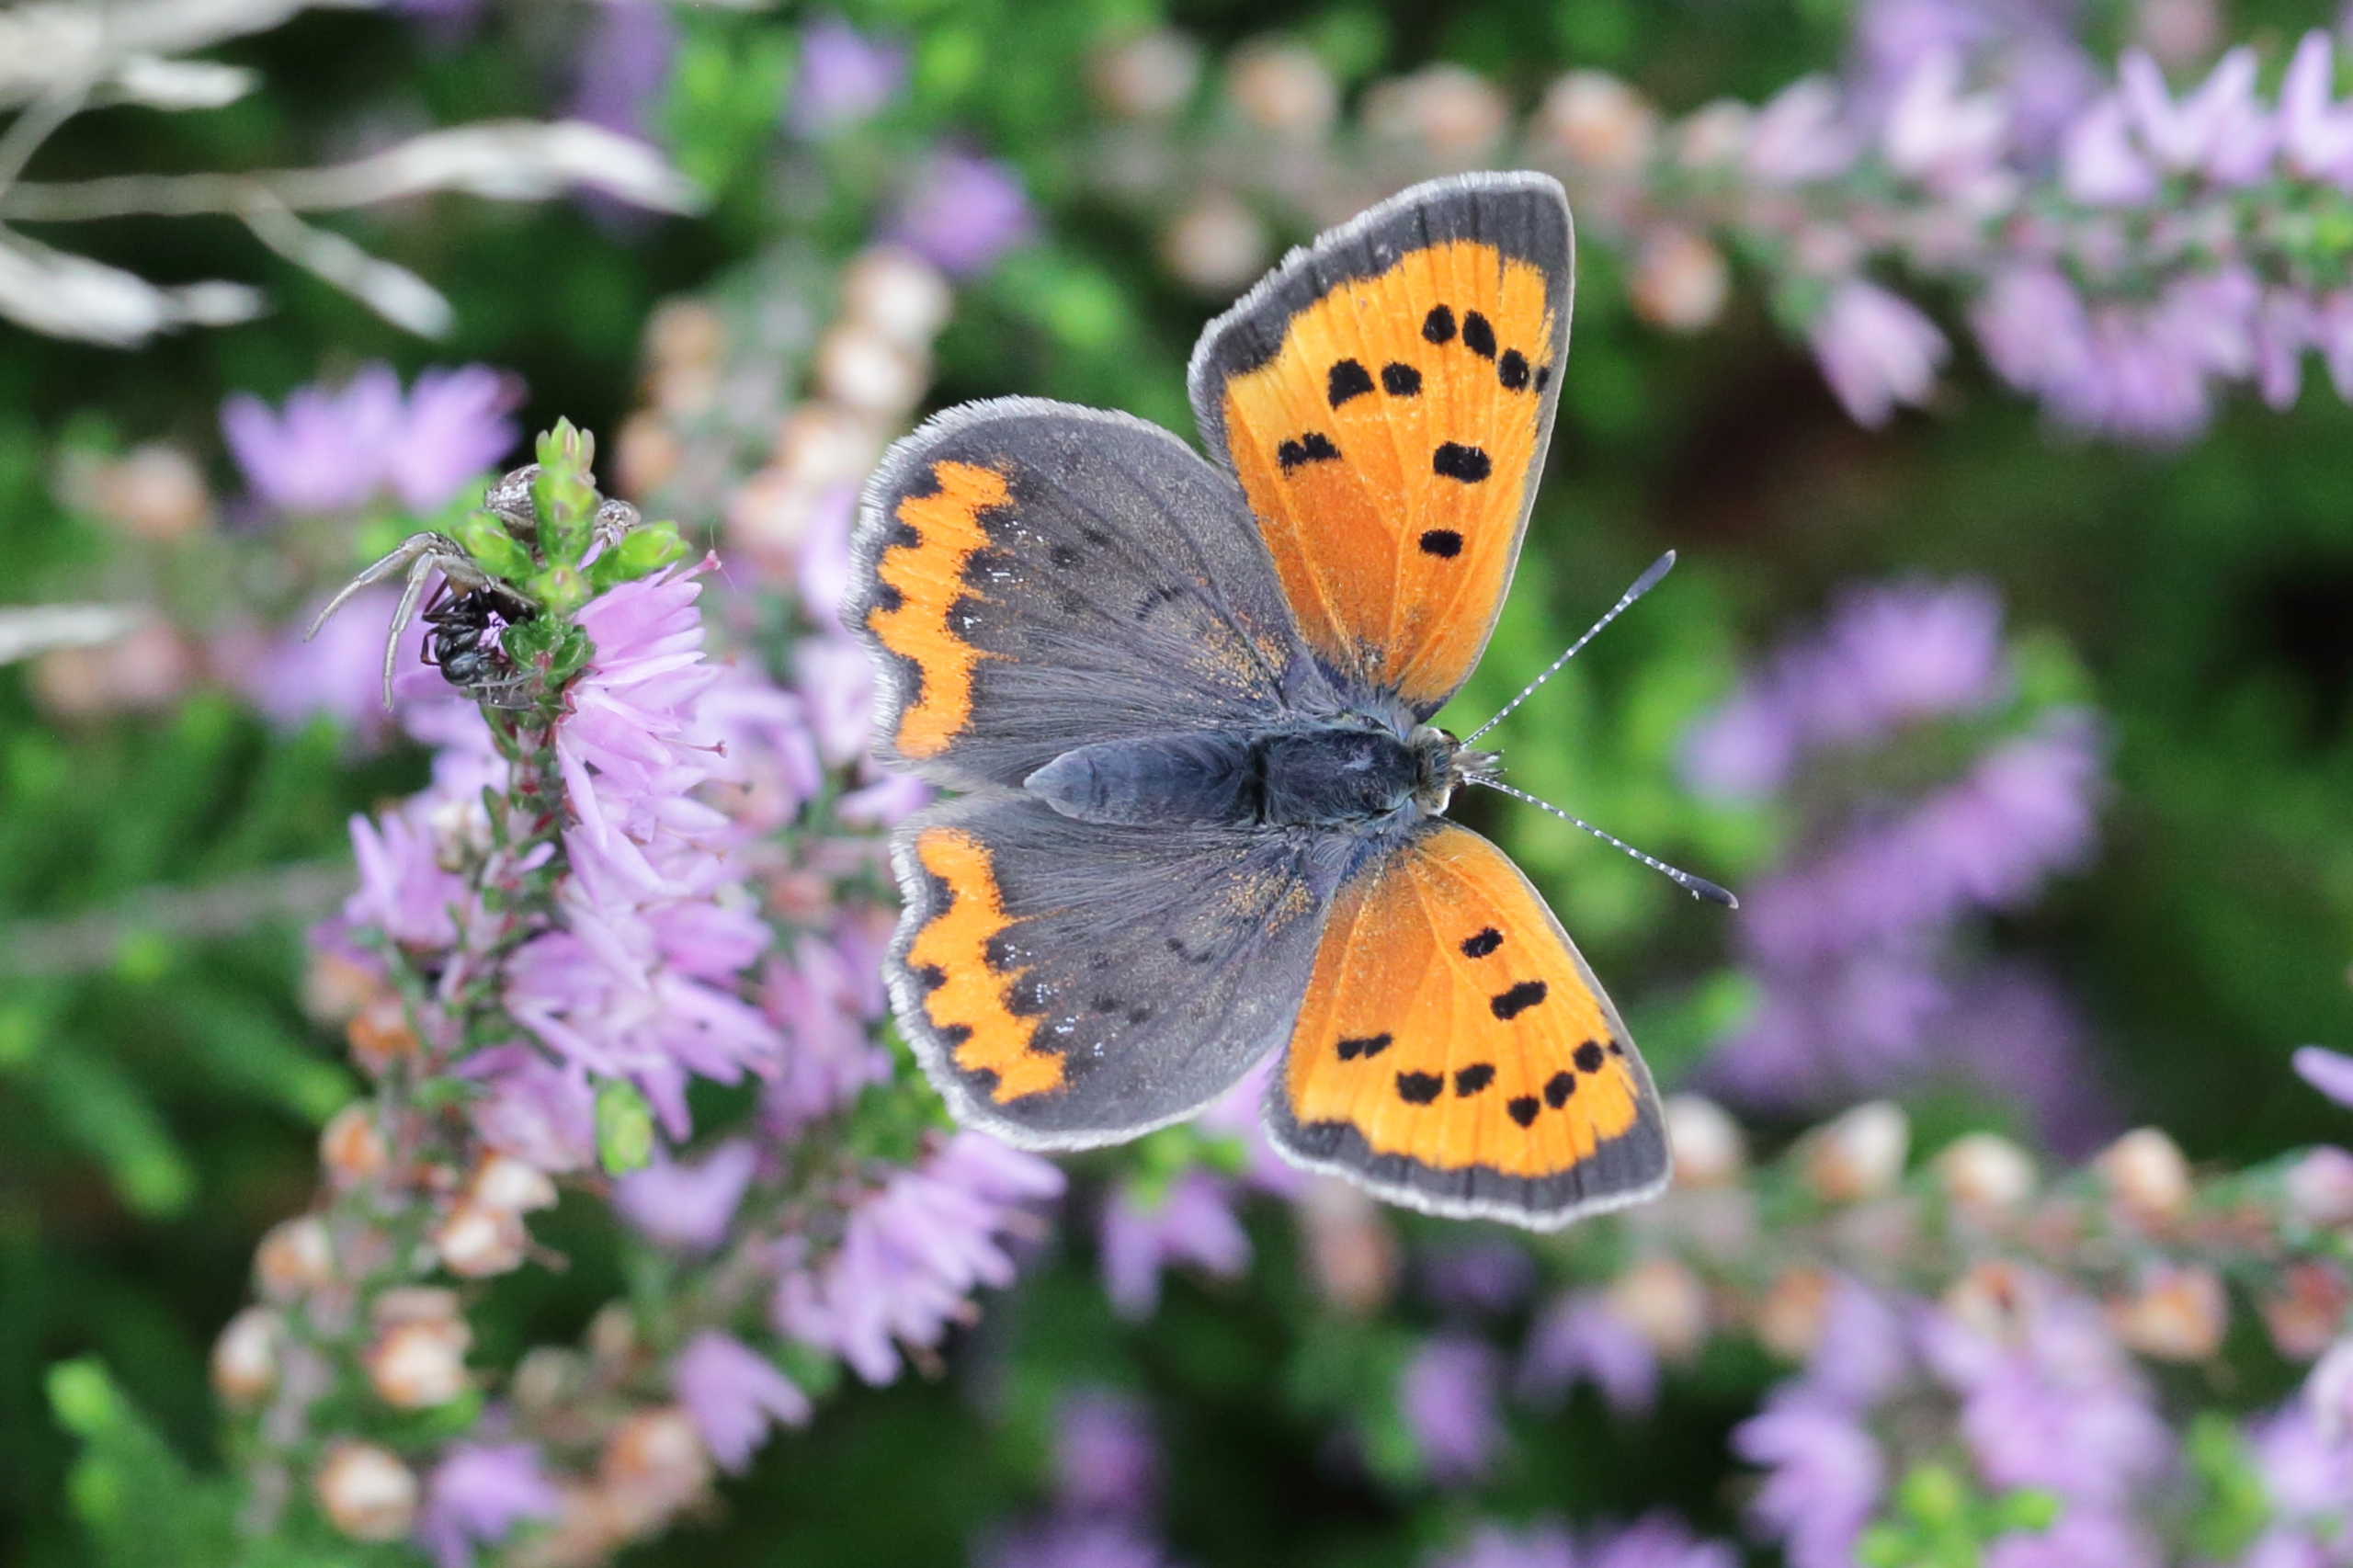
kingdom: Animalia
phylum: Arthropoda
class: Insecta
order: Lepidoptera
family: Lycaenidae
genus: Lycaena
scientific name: Lycaena phlaeas
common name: Lille ildfugl
